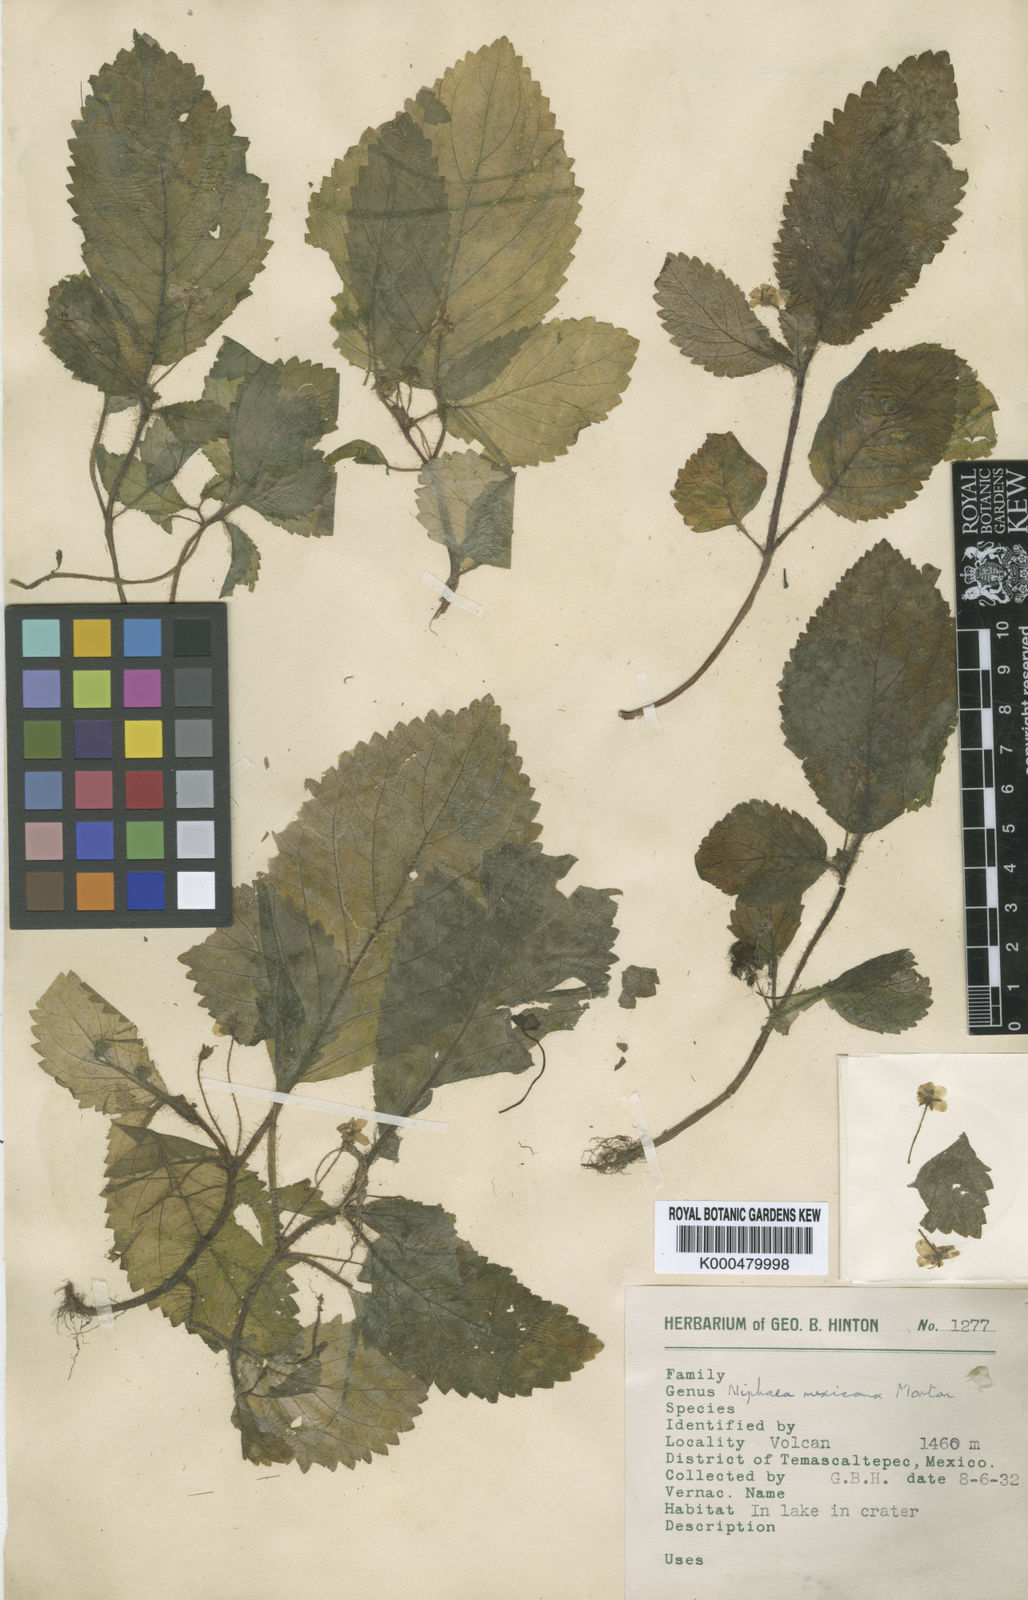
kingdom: Plantae
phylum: Tracheophyta
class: Magnoliopsida
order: Lamiales
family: Gesneriaceae
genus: Niphaea
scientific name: Niphaea mexicana
